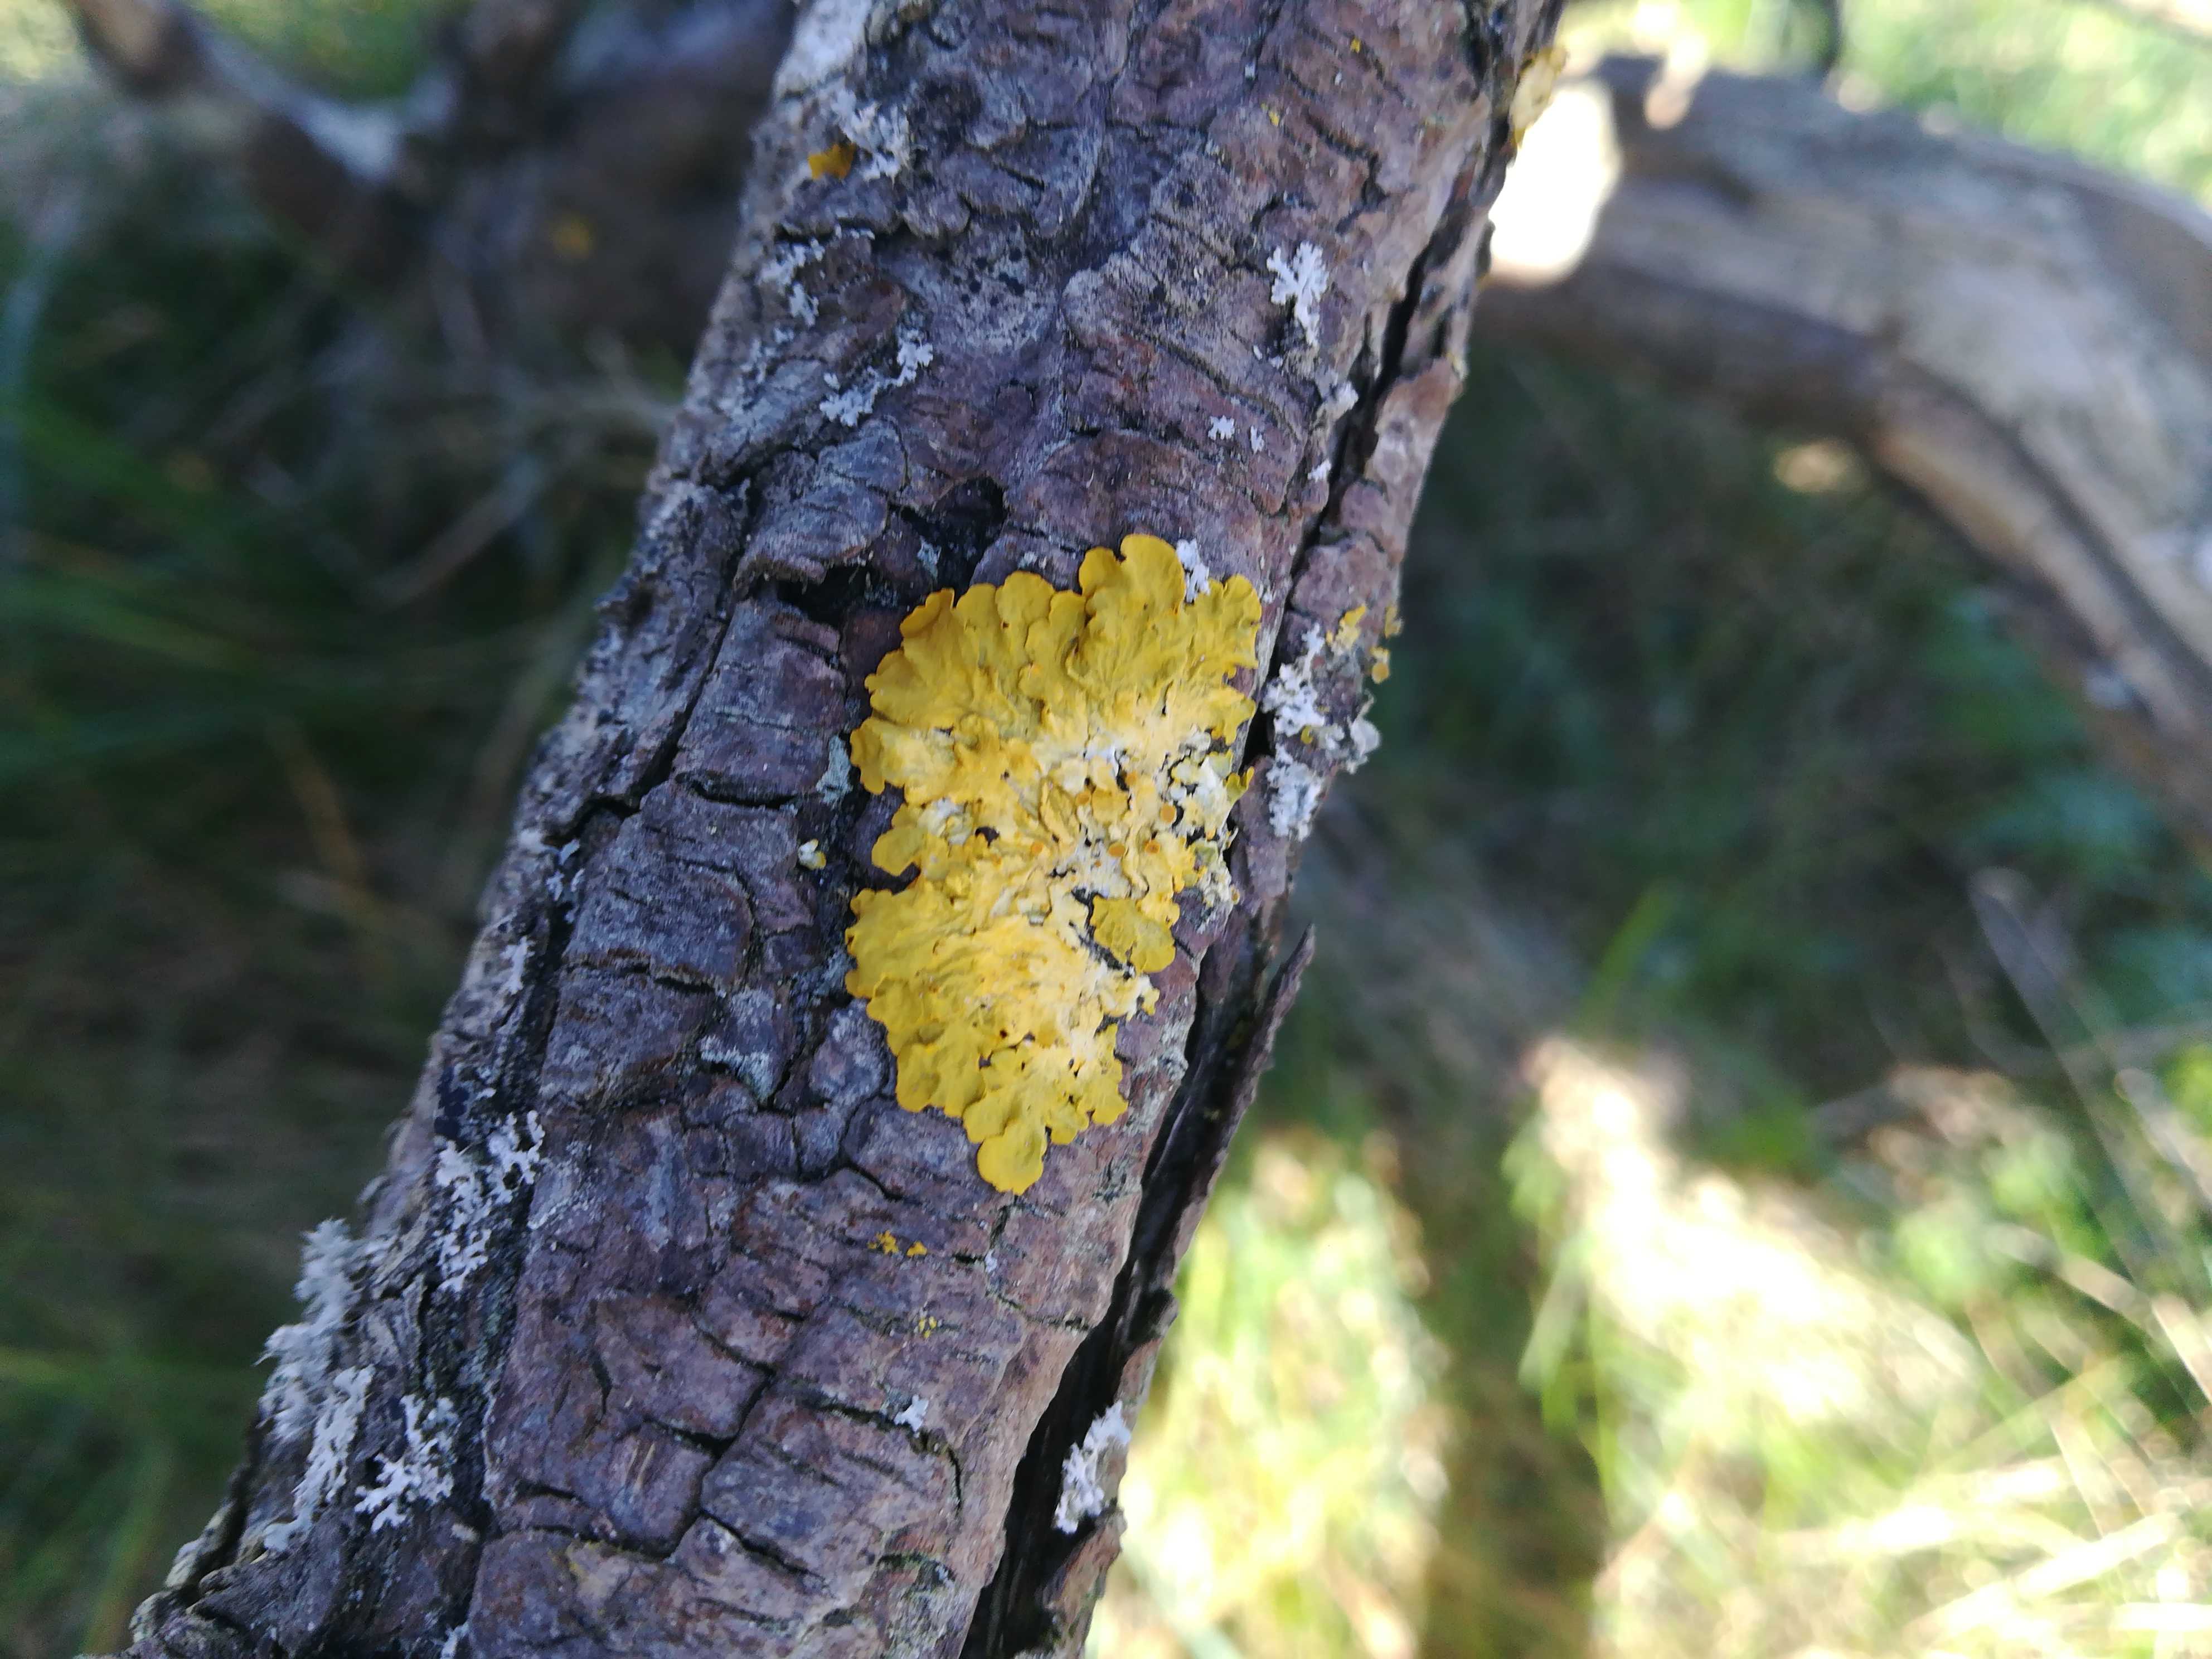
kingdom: Fungi
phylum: Ascomycota
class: Lecanoromycetes
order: Teloschistales
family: Teloschistaceae
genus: Xanthoria
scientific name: Xanthoria parietina
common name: almindelig væggelav
